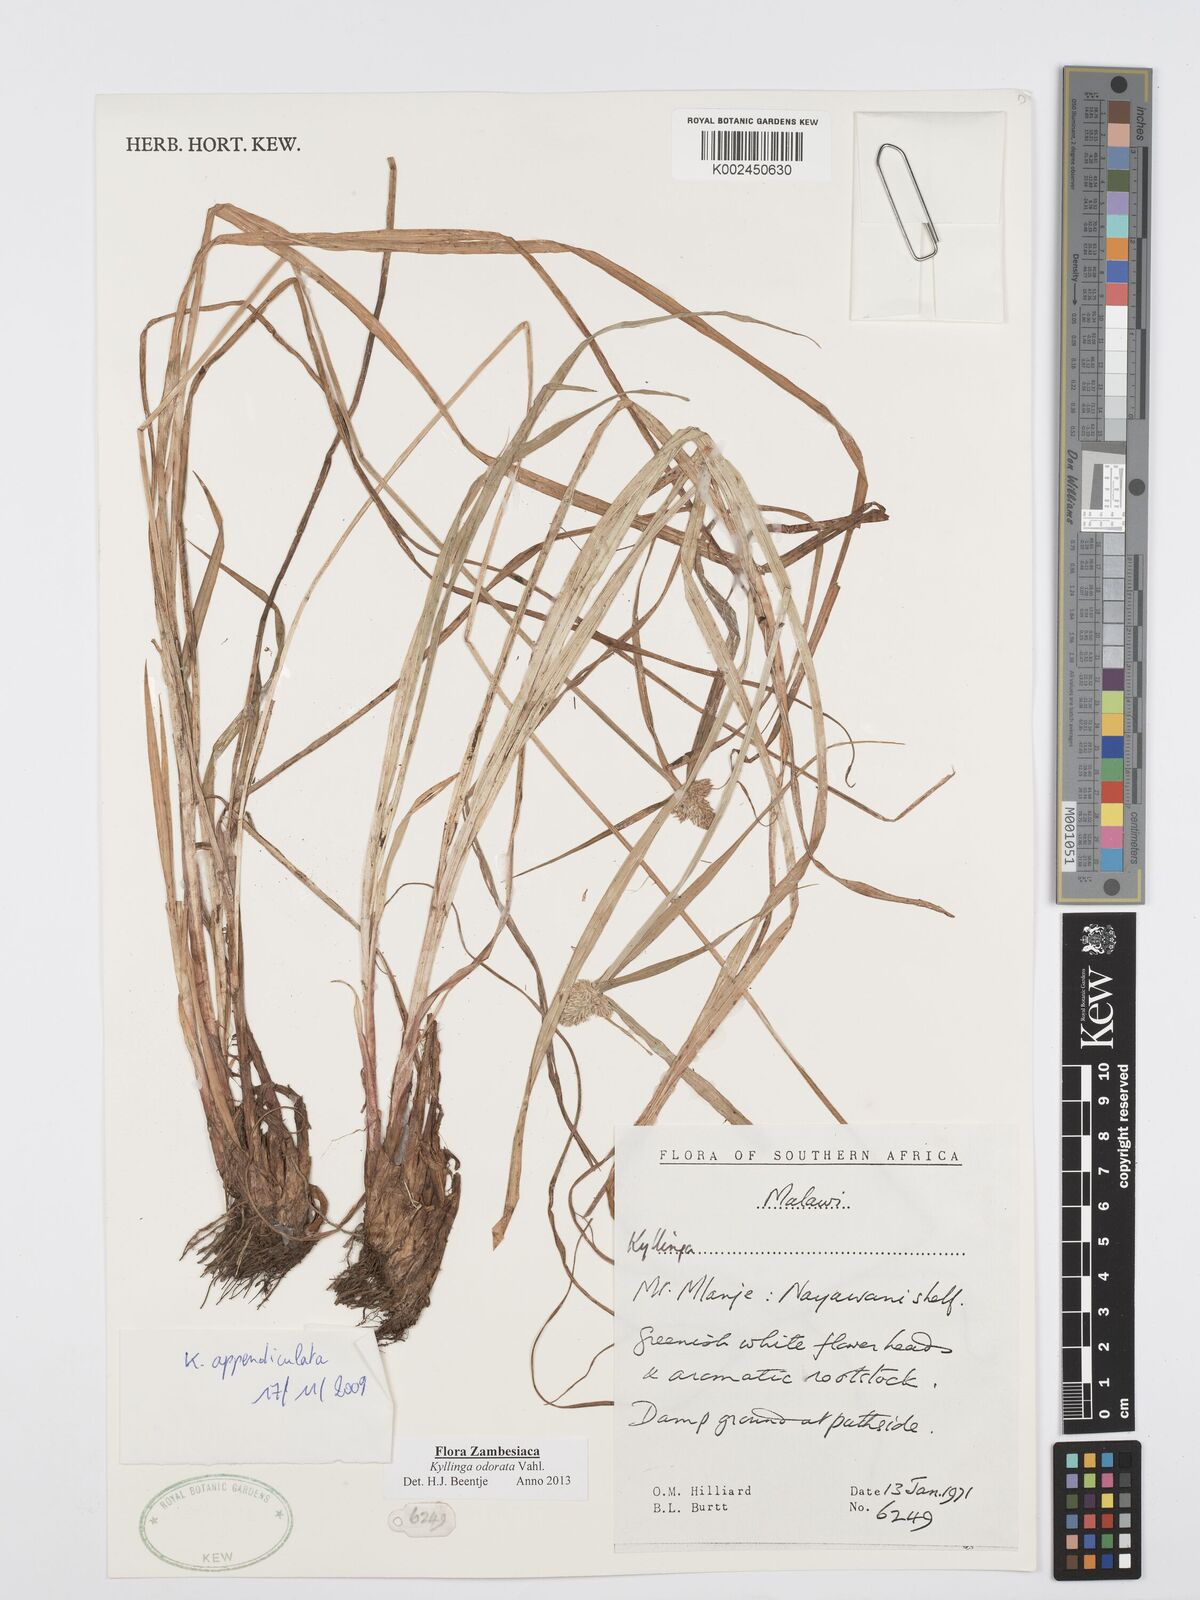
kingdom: Plantae
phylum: Tracheophyta
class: Liliopsida
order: Poales
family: Cyperaceae
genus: Cyperus
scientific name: Cyperus
